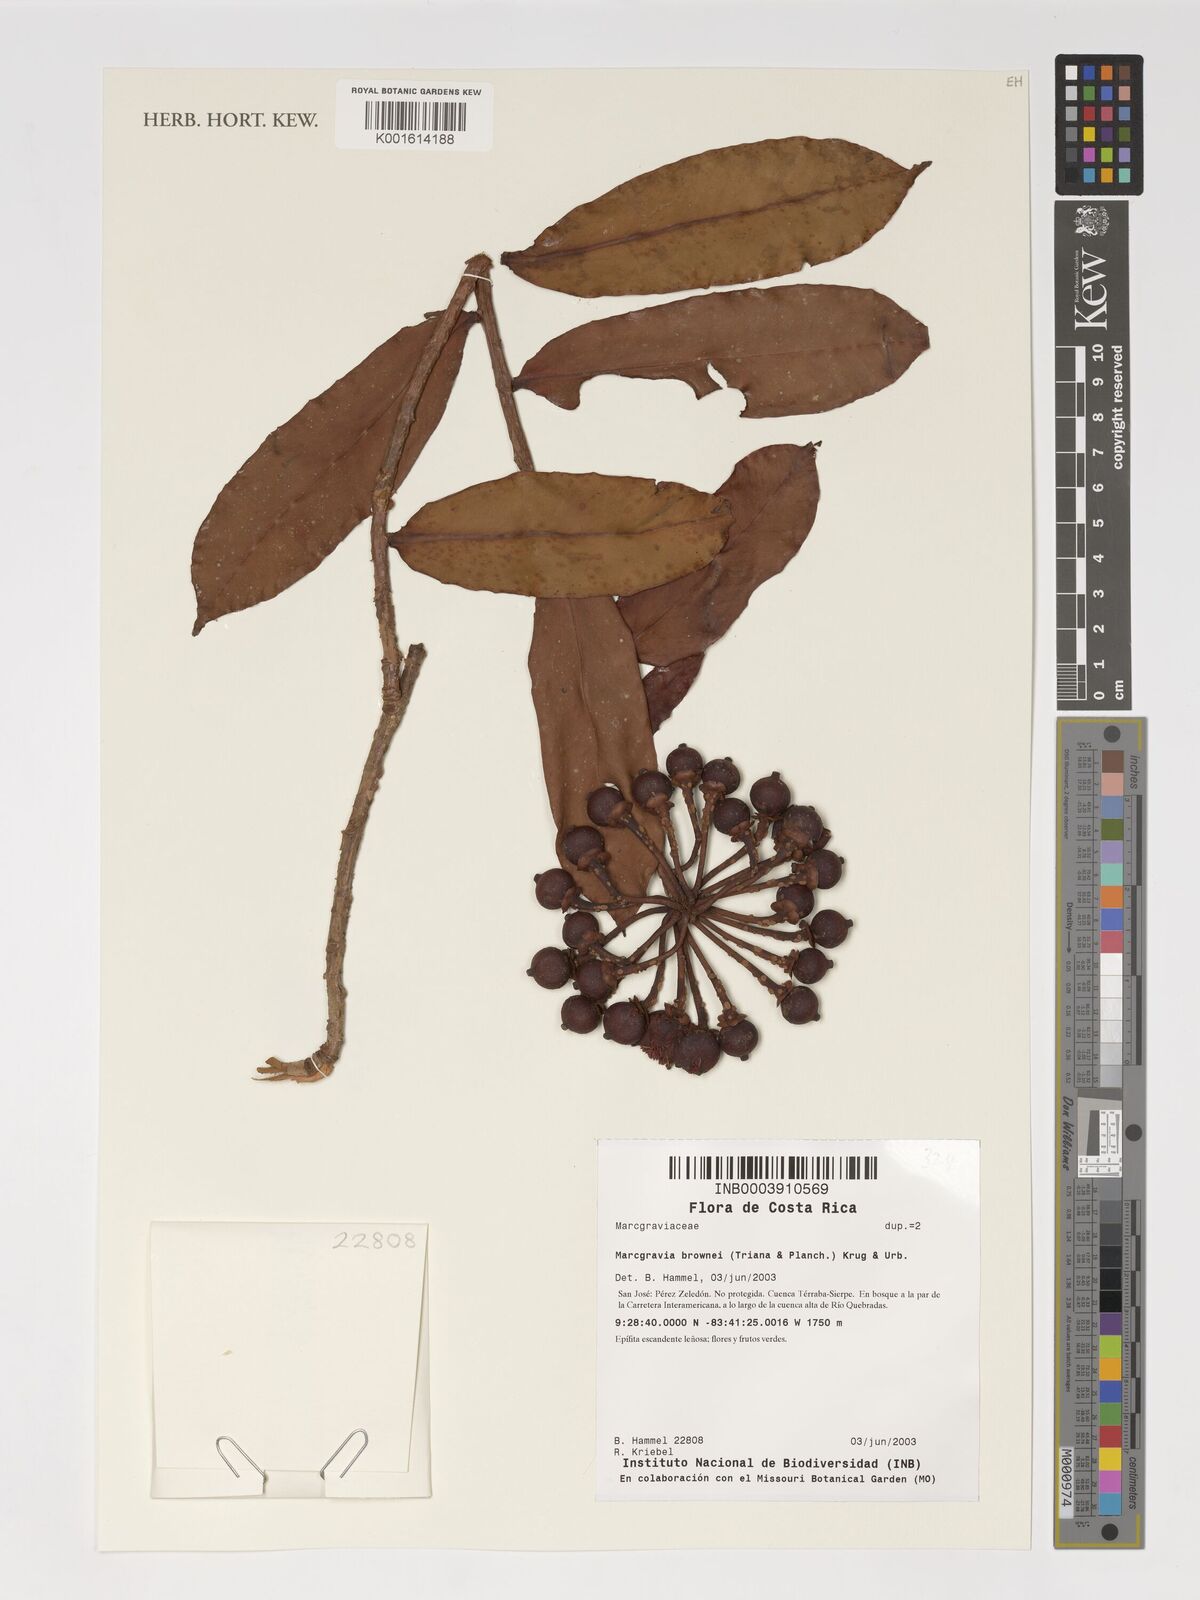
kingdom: Plantae
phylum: Tracheophyta
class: Magnoliopsida
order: Ericales
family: Marcgraviaceae
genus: Marcgravia
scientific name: Marcgravia brownei
